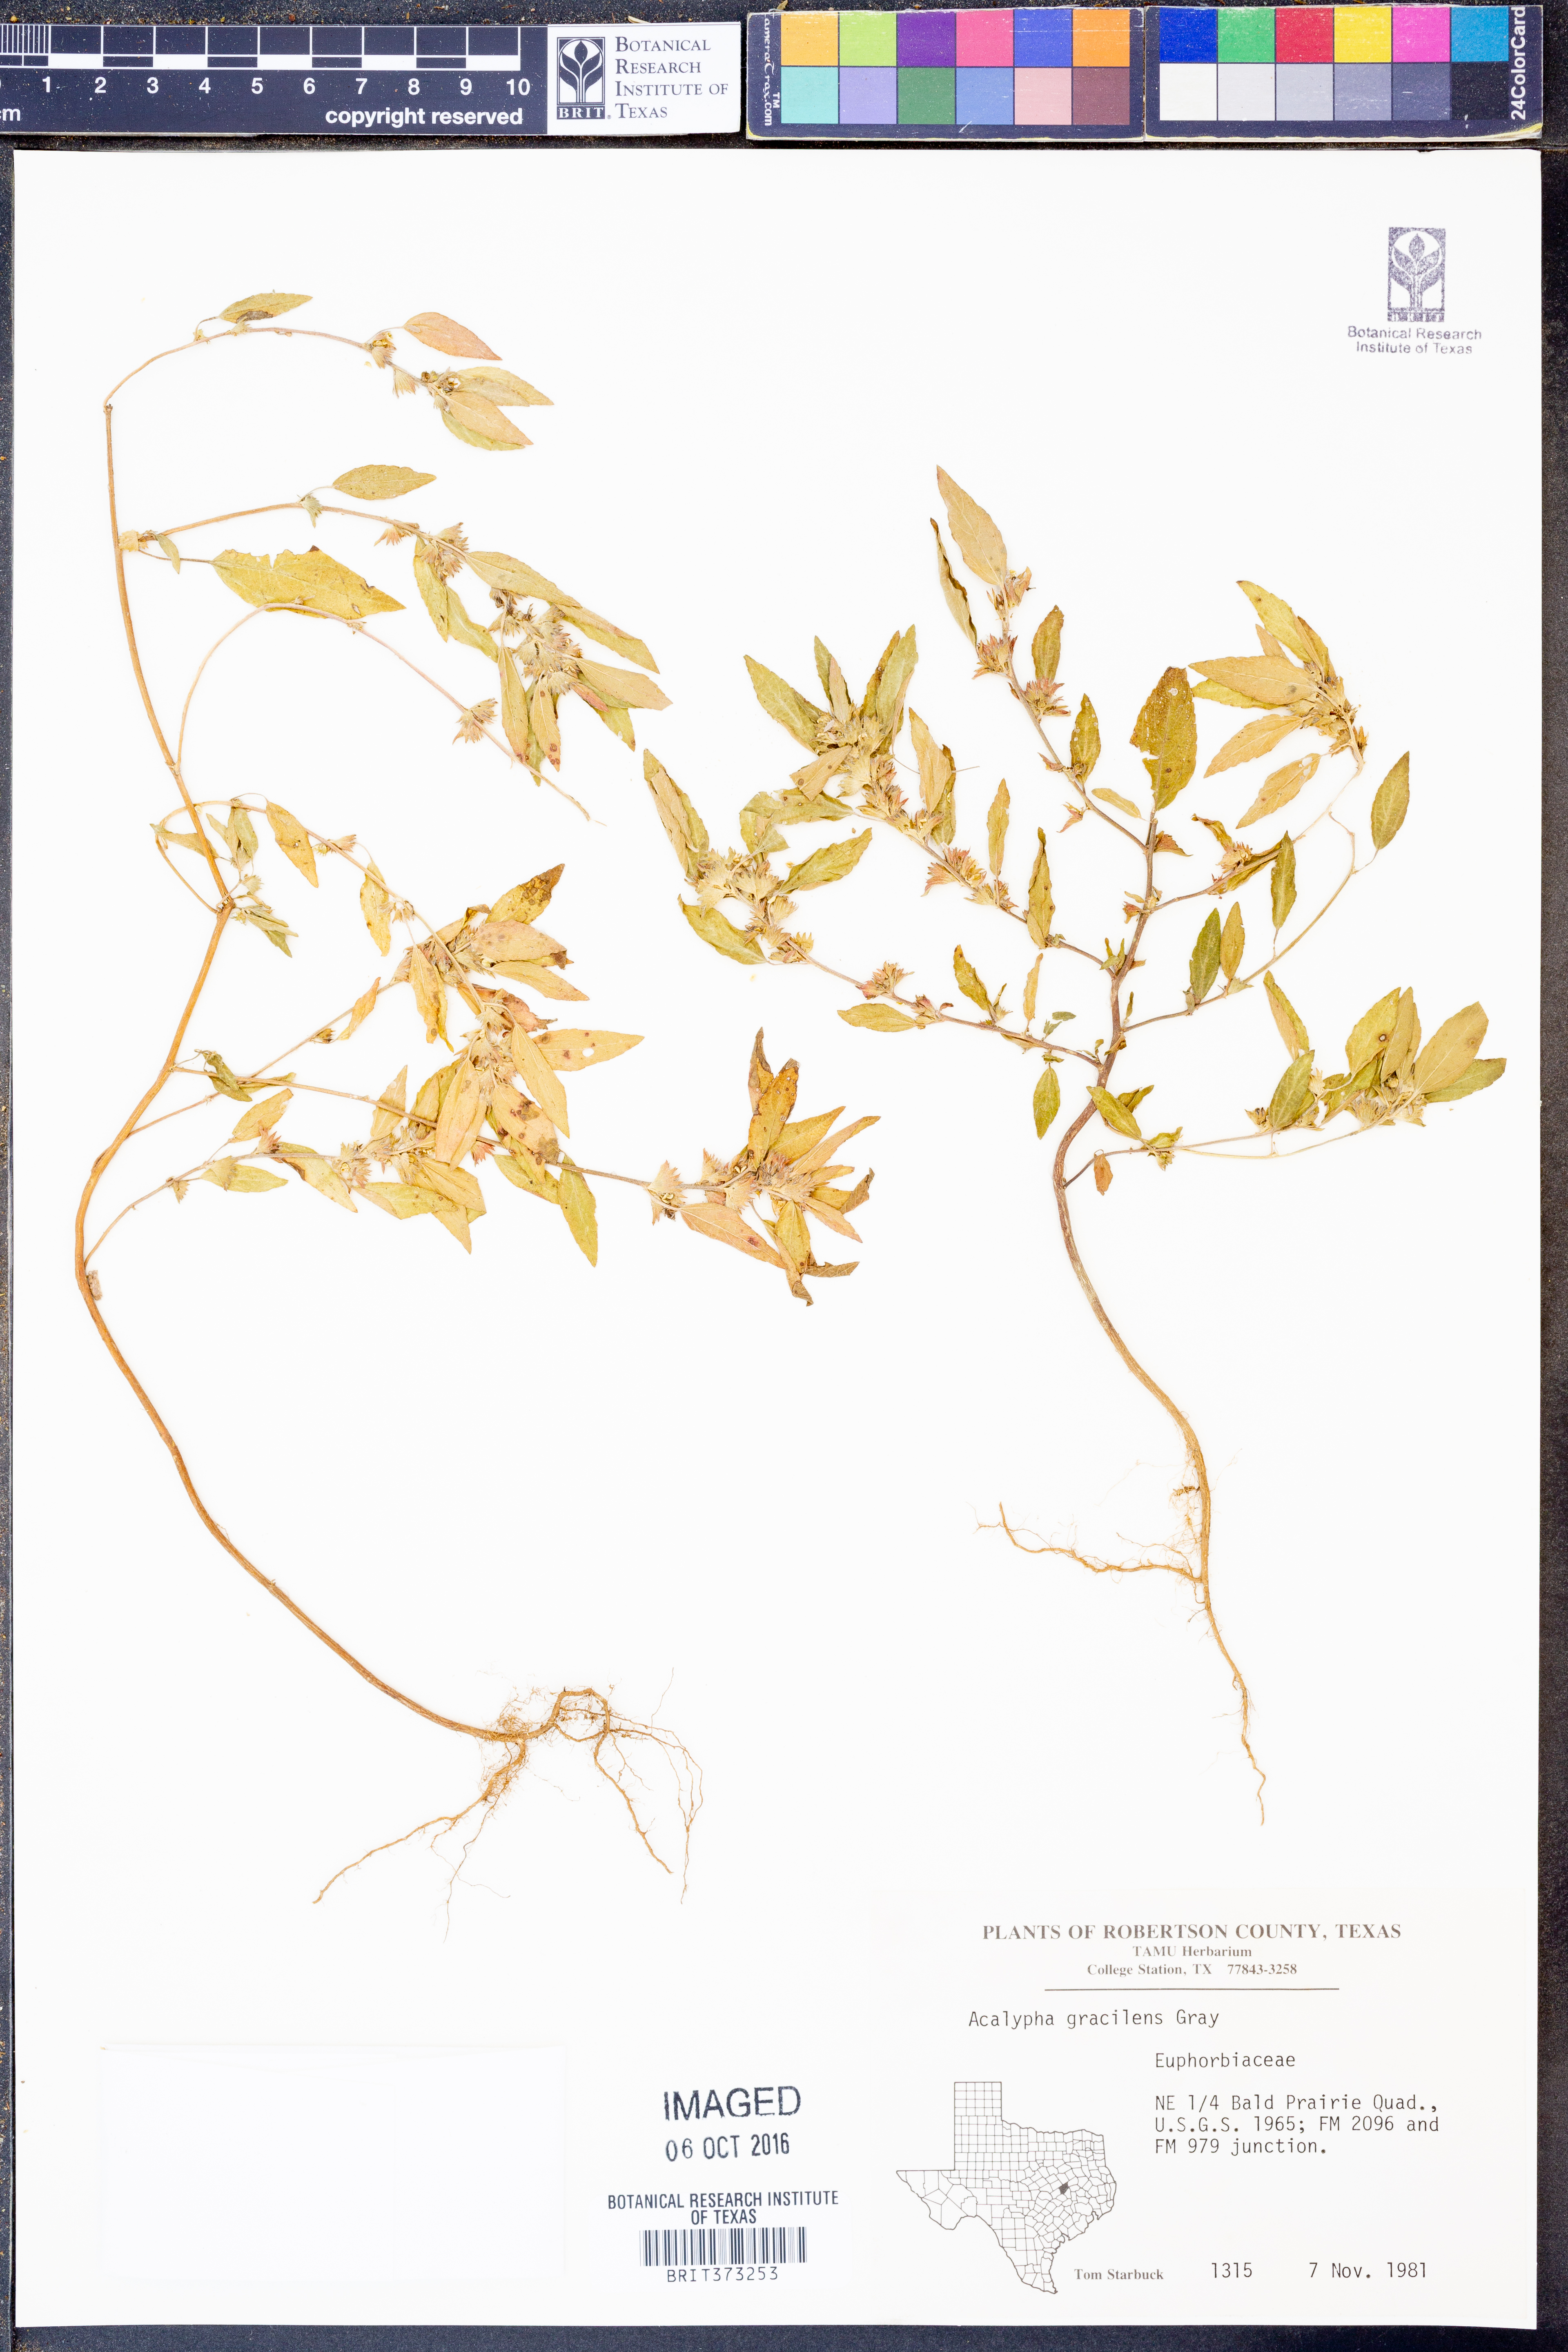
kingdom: Plantae
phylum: Tracheophyta
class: Magnoliopsida
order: Malpighiales
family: Euphorbiaceae
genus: Acalypha
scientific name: Acalypha gracilens
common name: Slender three-seeded mercury
